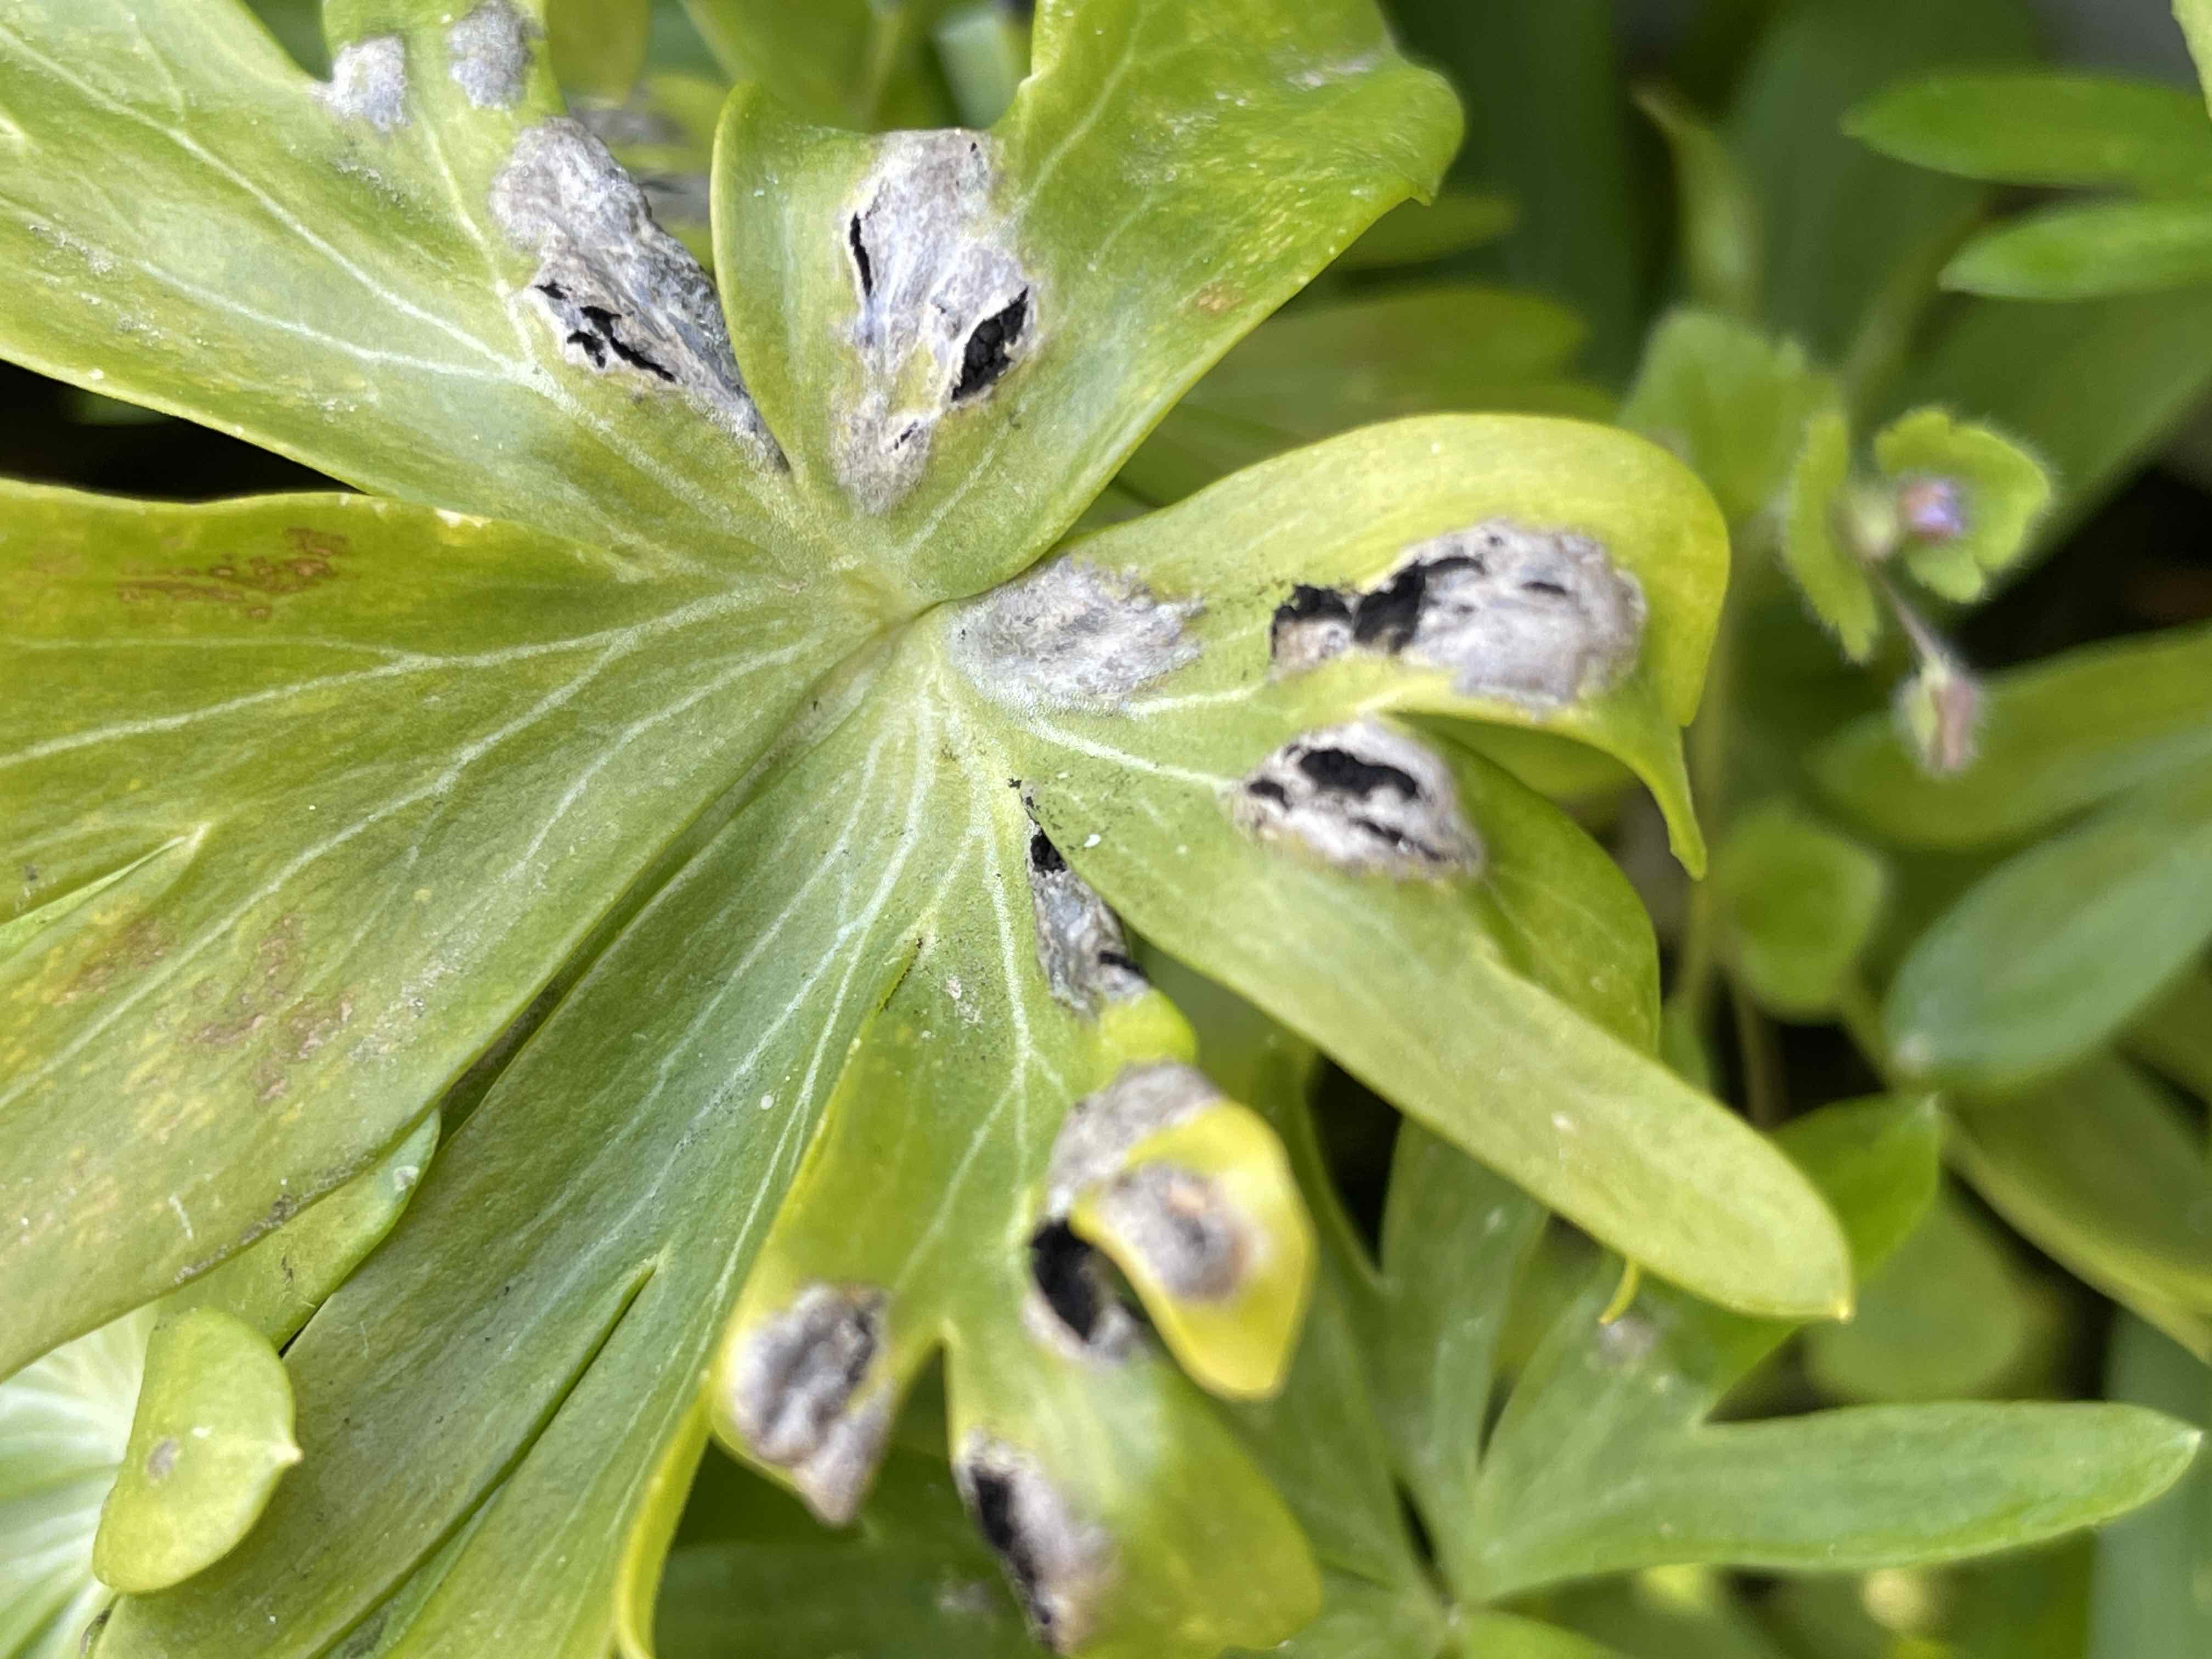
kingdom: Fungi
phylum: Basidiomycota
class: Ustilaginomycetes
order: Urocystidales
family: Urocystidaceae
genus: Urocystis
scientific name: Urocystis eranthidis
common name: erantis-brand
